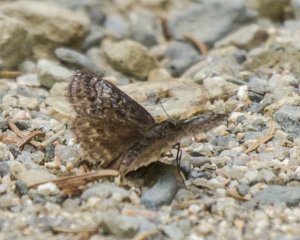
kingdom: Animalia
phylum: Arthropoda
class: Insecta
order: Lepidoptera
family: Hesperiidae
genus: Erynnis
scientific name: Erynnis icelus
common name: Dreamy Duskywing
